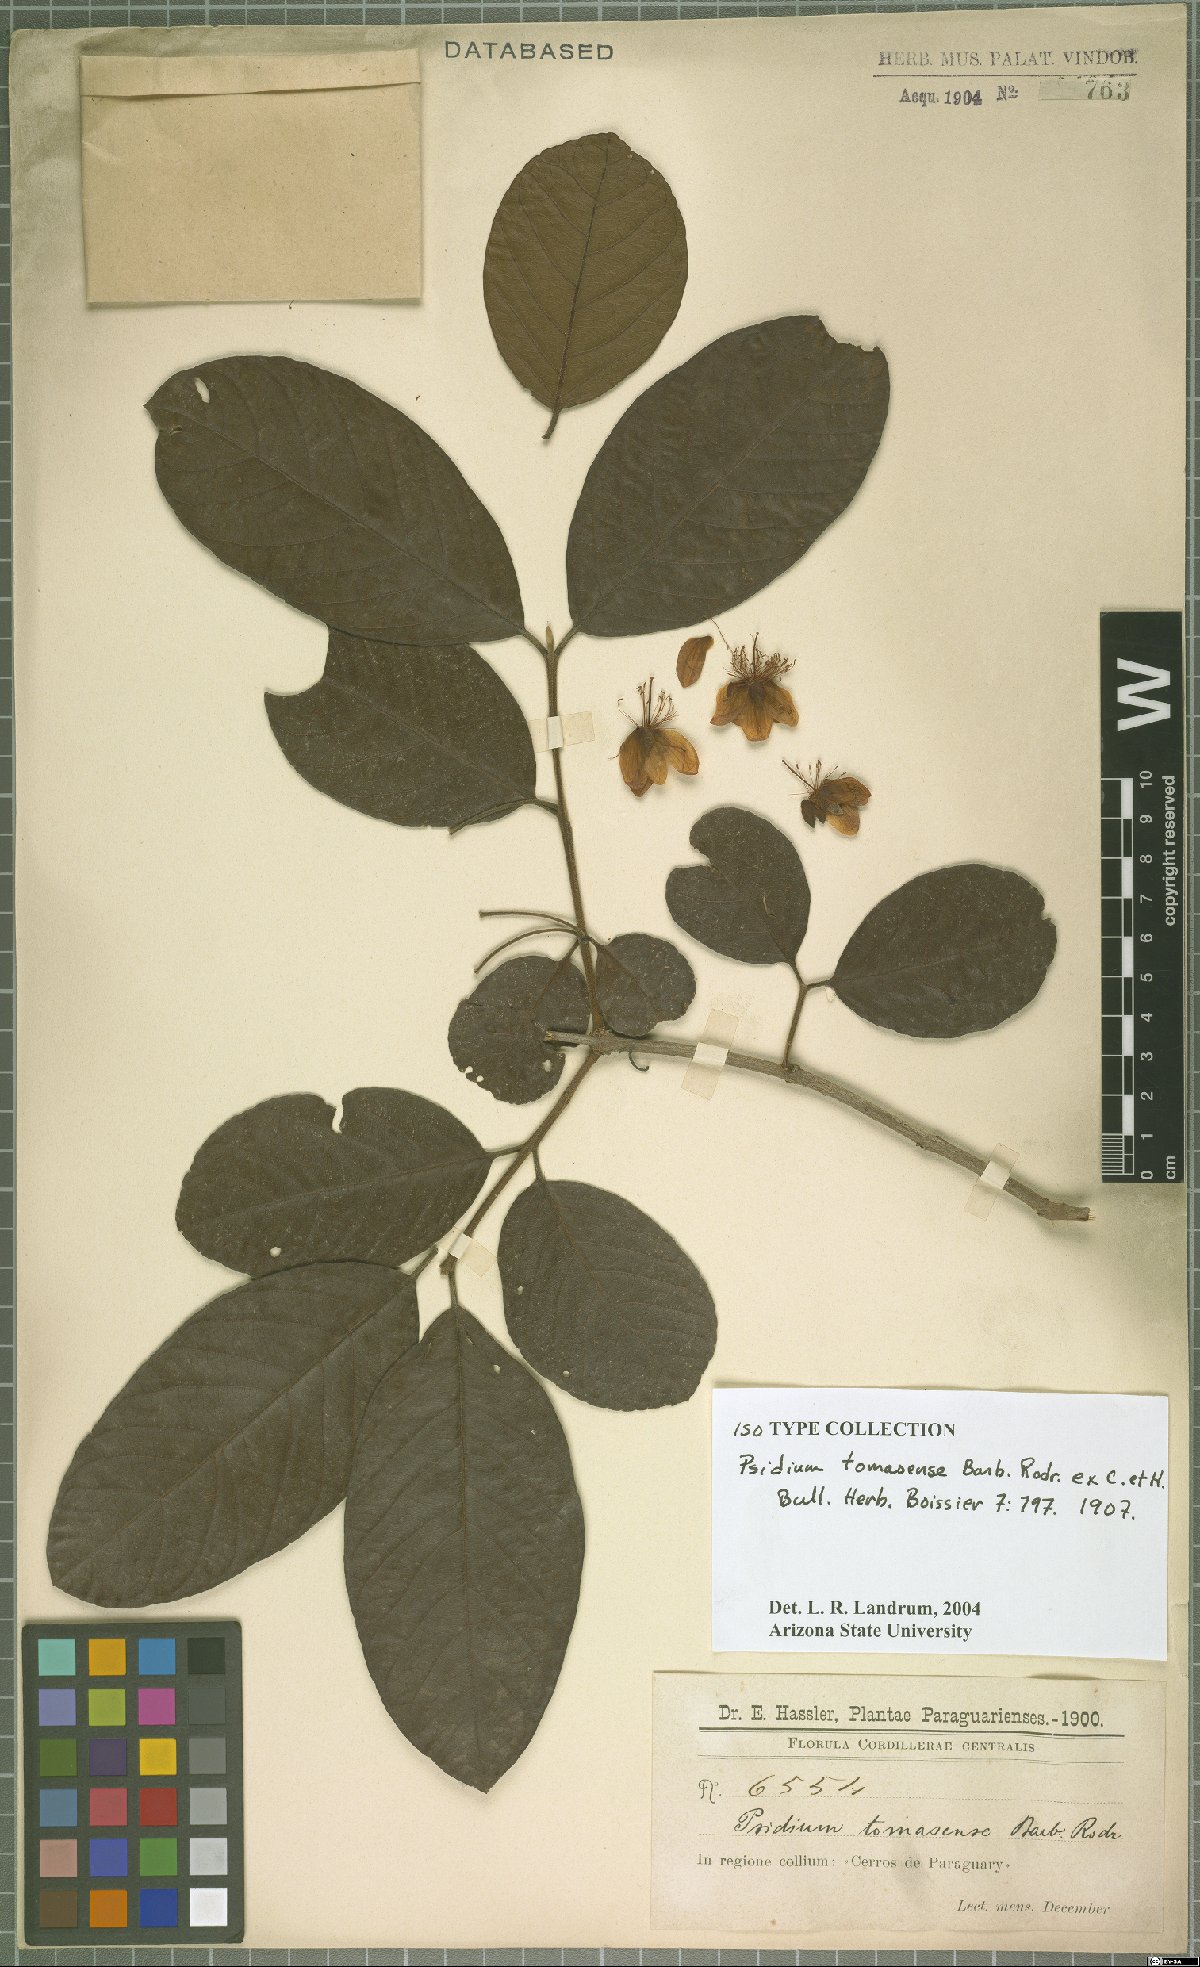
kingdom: Plantae
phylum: Tracheophyta
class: Magnoliopsida
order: Myrtales
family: Myrtaceae
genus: Psidium
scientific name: Psidium guineense
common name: Brazilian guava
